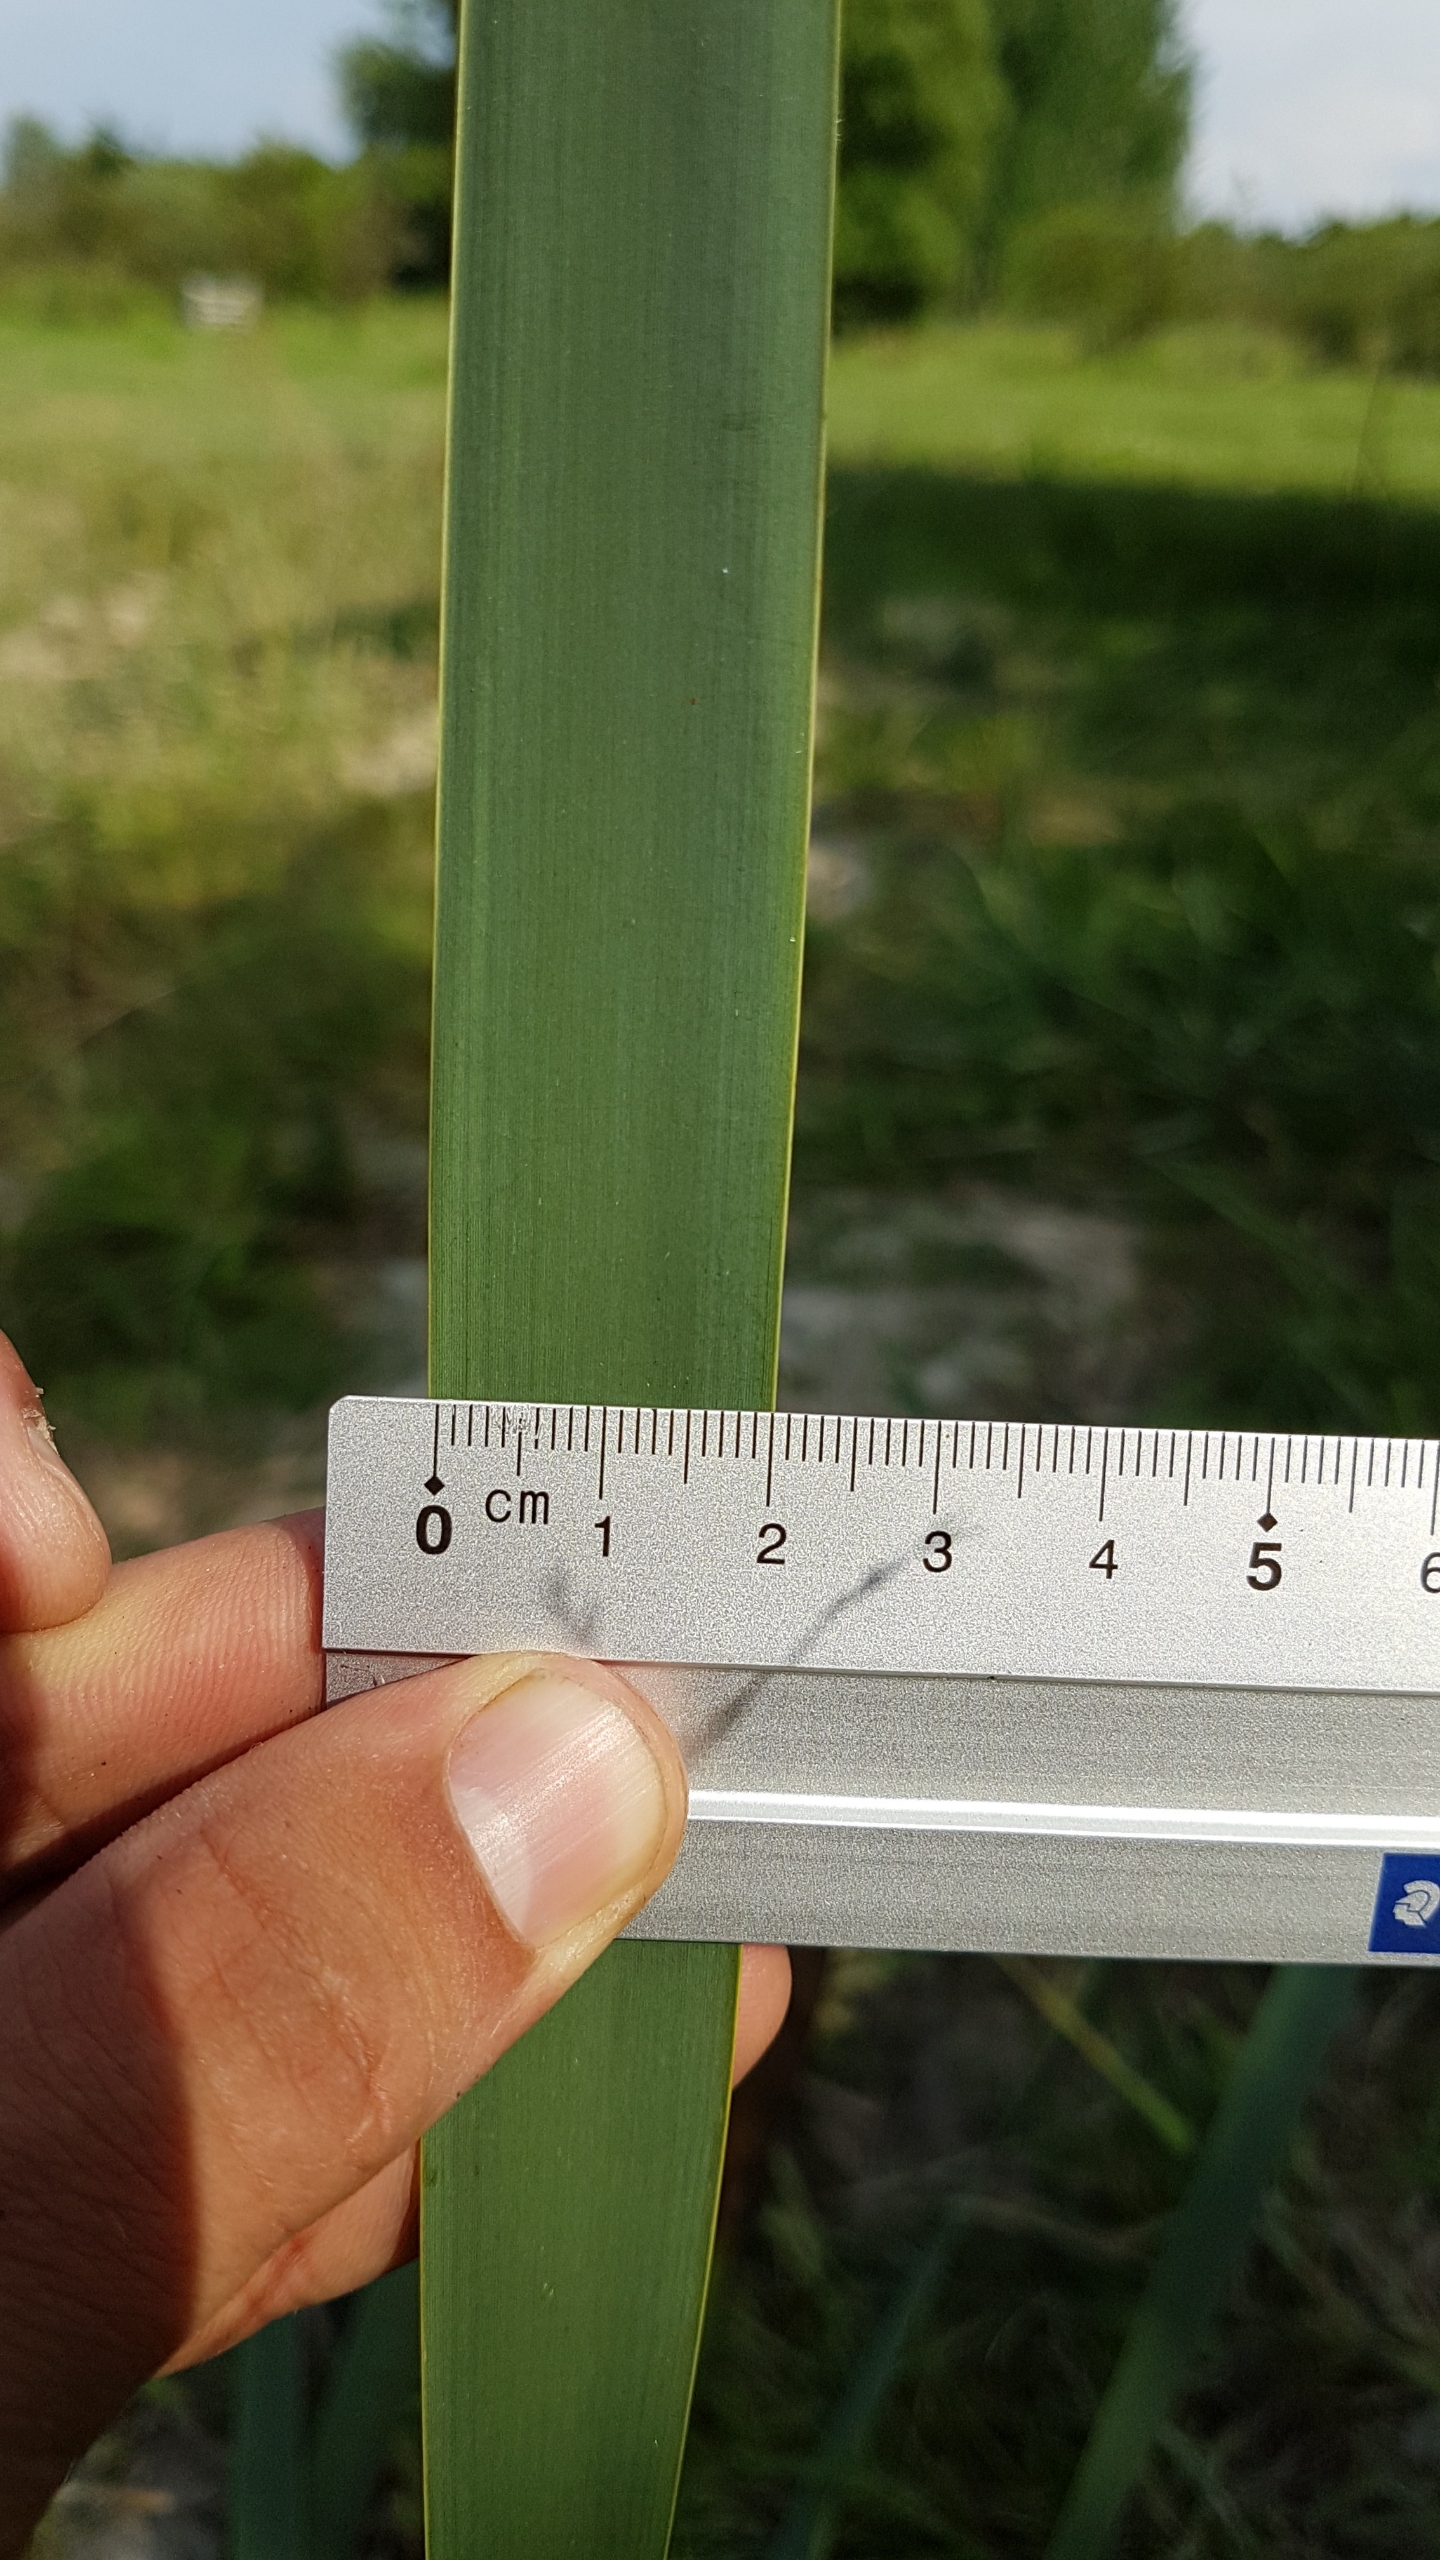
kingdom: Plantae
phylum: Tracheophyta
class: Liliopsida
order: Poales
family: Typhaceae
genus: Typha
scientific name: Typha latifolia
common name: Bredbladet dunhammer
